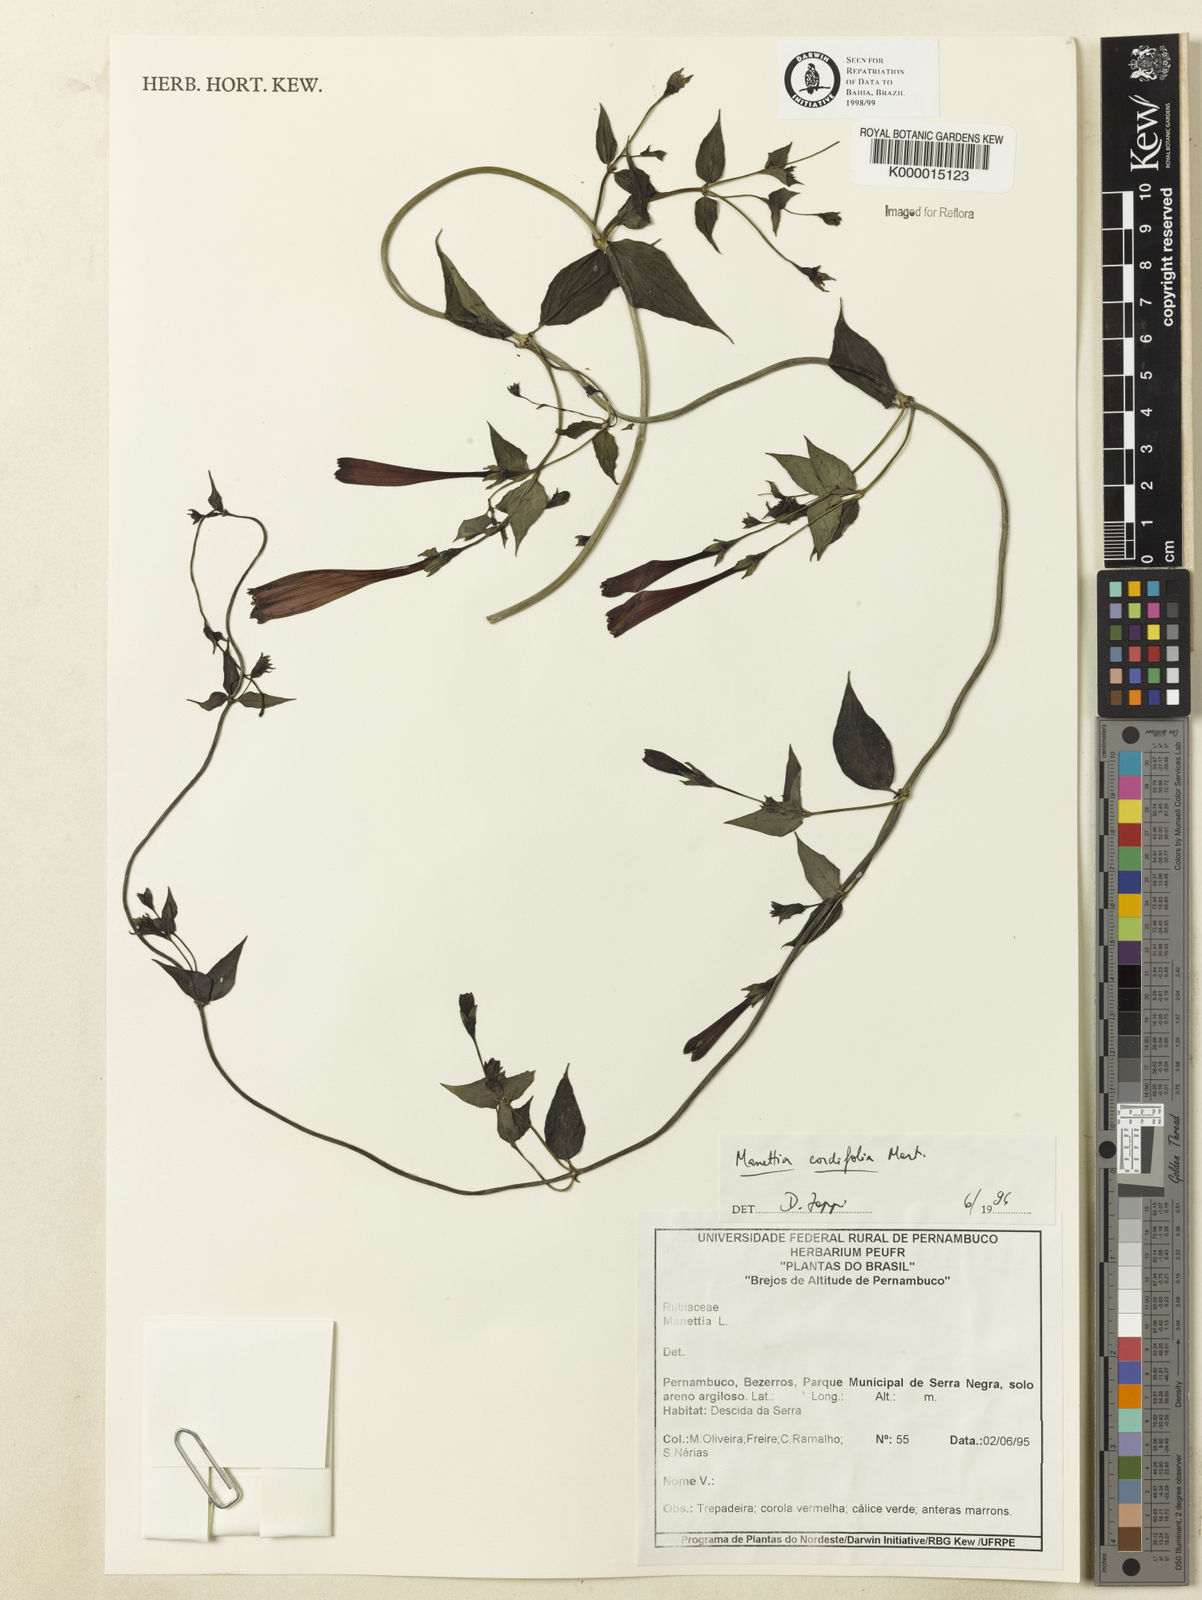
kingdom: Plantae
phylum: Tracheophyta
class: Magnoliopsida
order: Gentianales
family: Rubiaceae
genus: Manettia
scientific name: Manettia cordifolia
